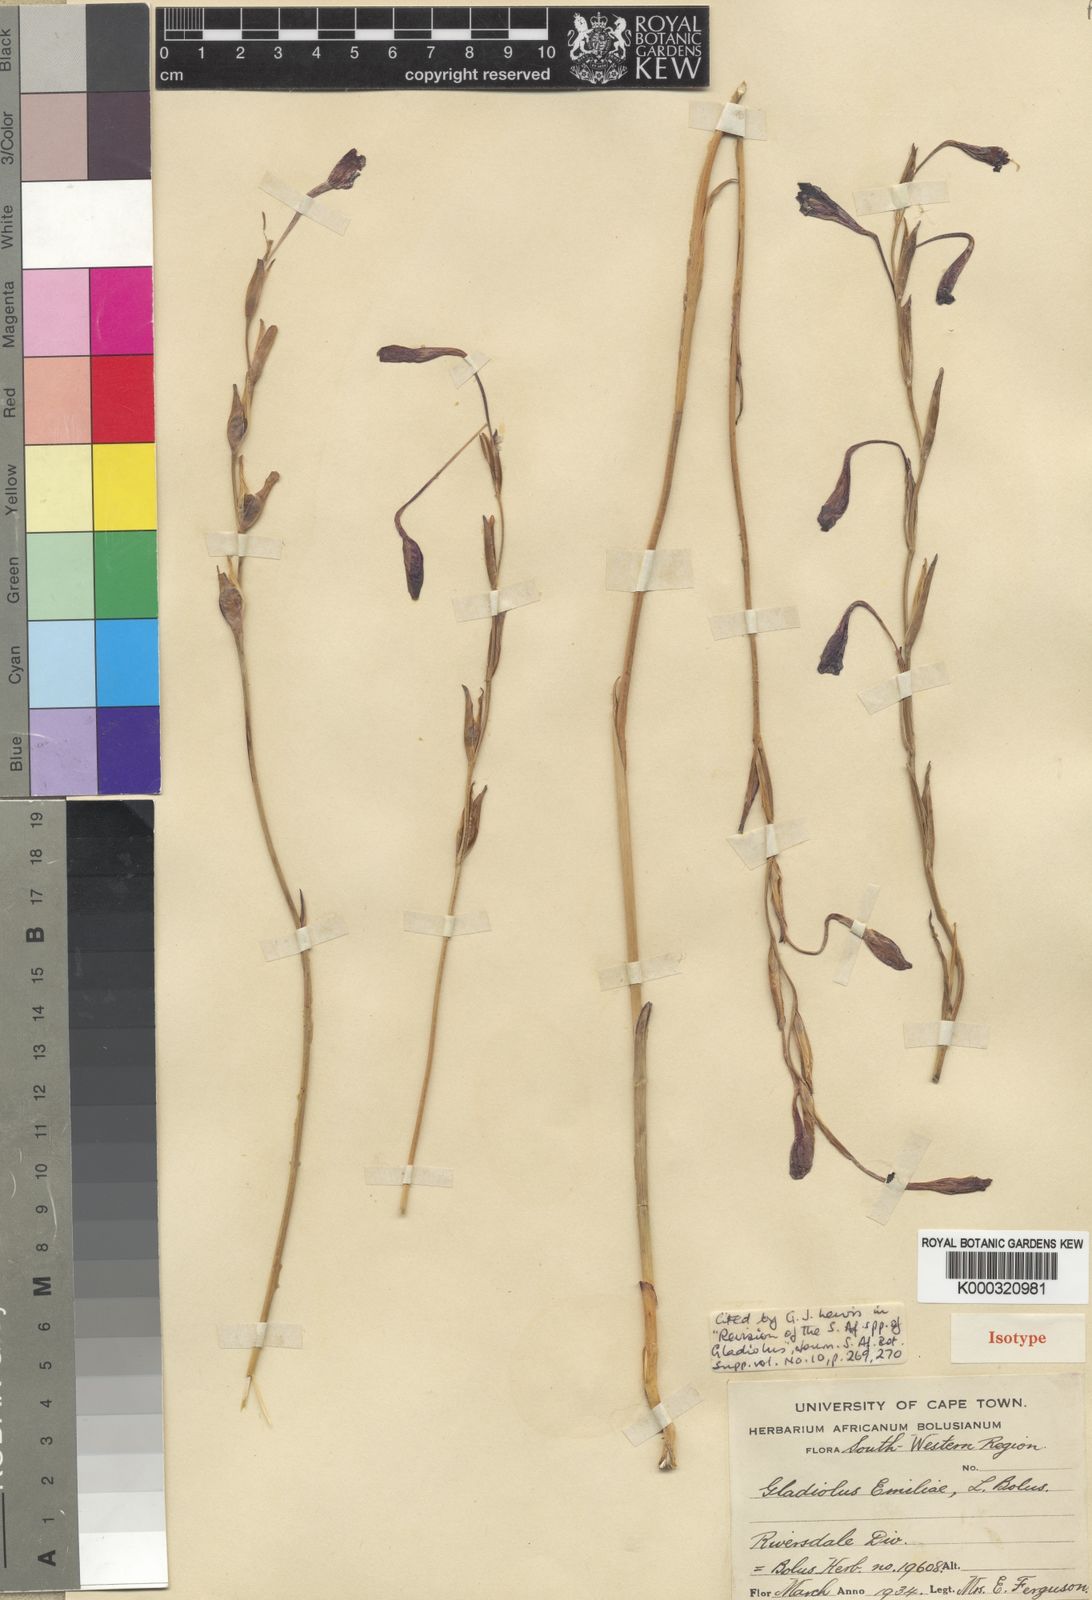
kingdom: Plantae
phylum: Tracheophyta
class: Liliopsida
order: Asparagales
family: Iridaceae
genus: Gladiolus
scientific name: Gladiolus emiliae
